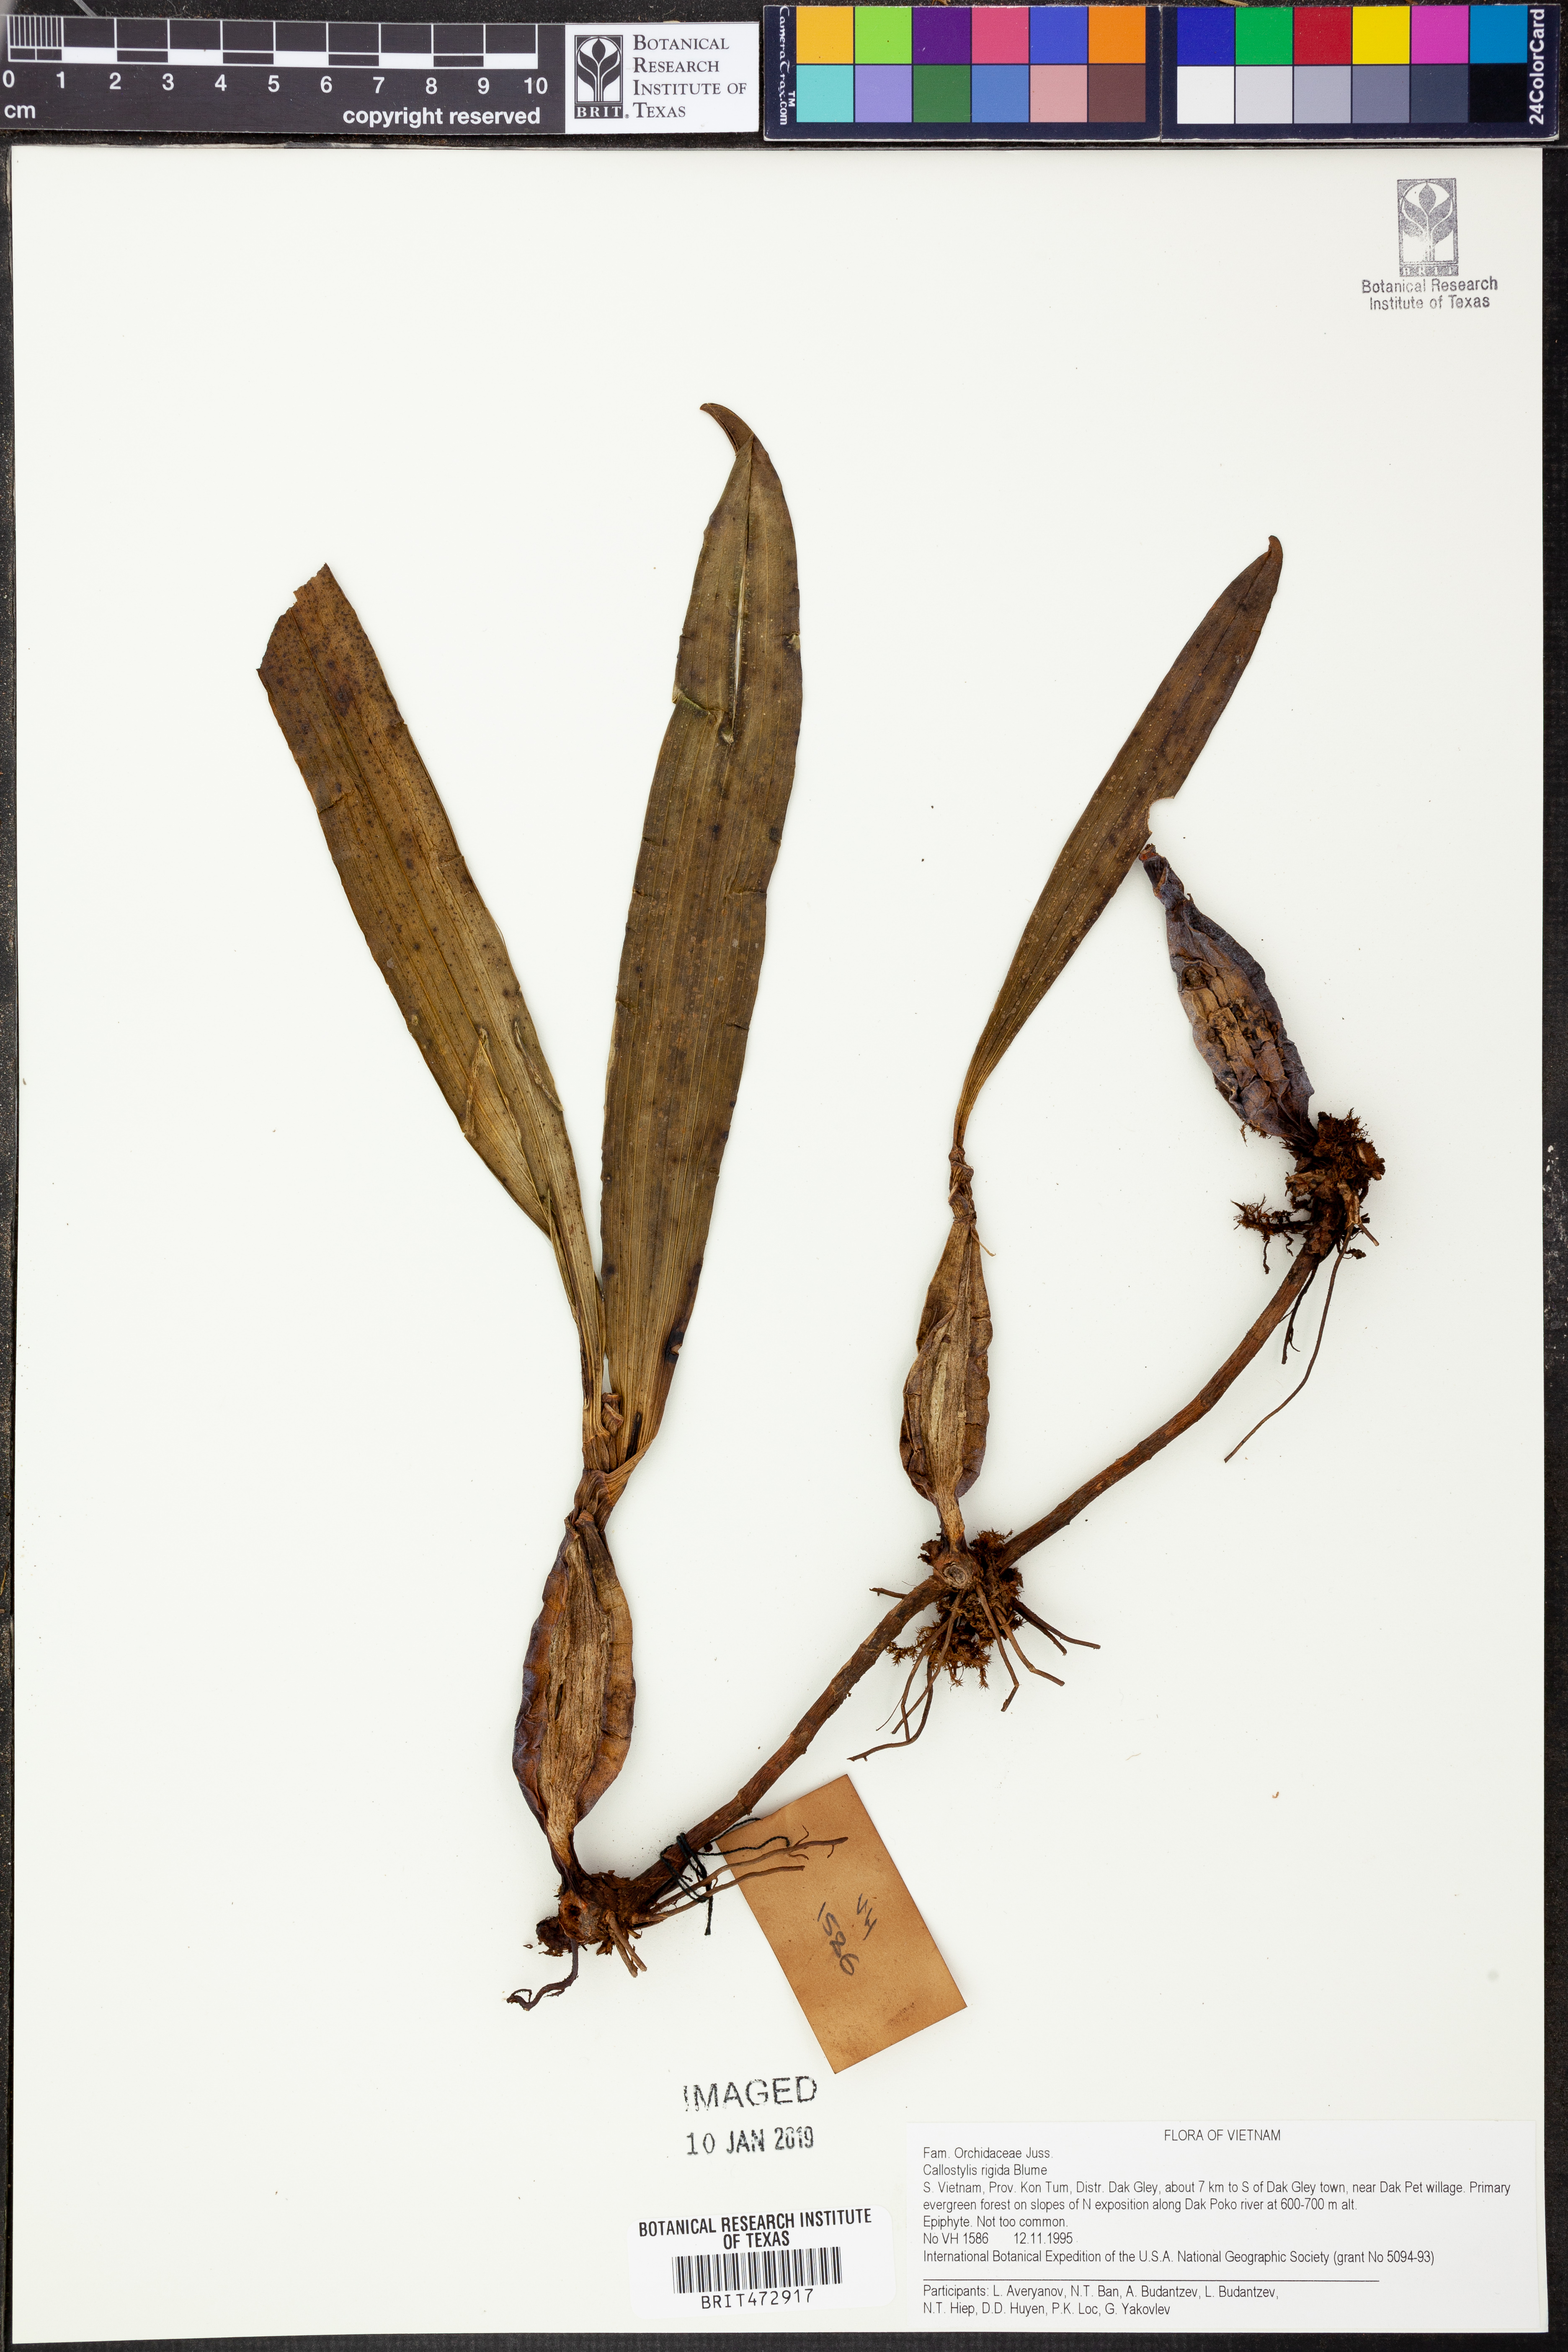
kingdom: Plantae
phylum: Tracheophyta
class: Liliopsida
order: Asparagales
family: Orchidaceae
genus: Callostylis
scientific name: Callostylis rigida
